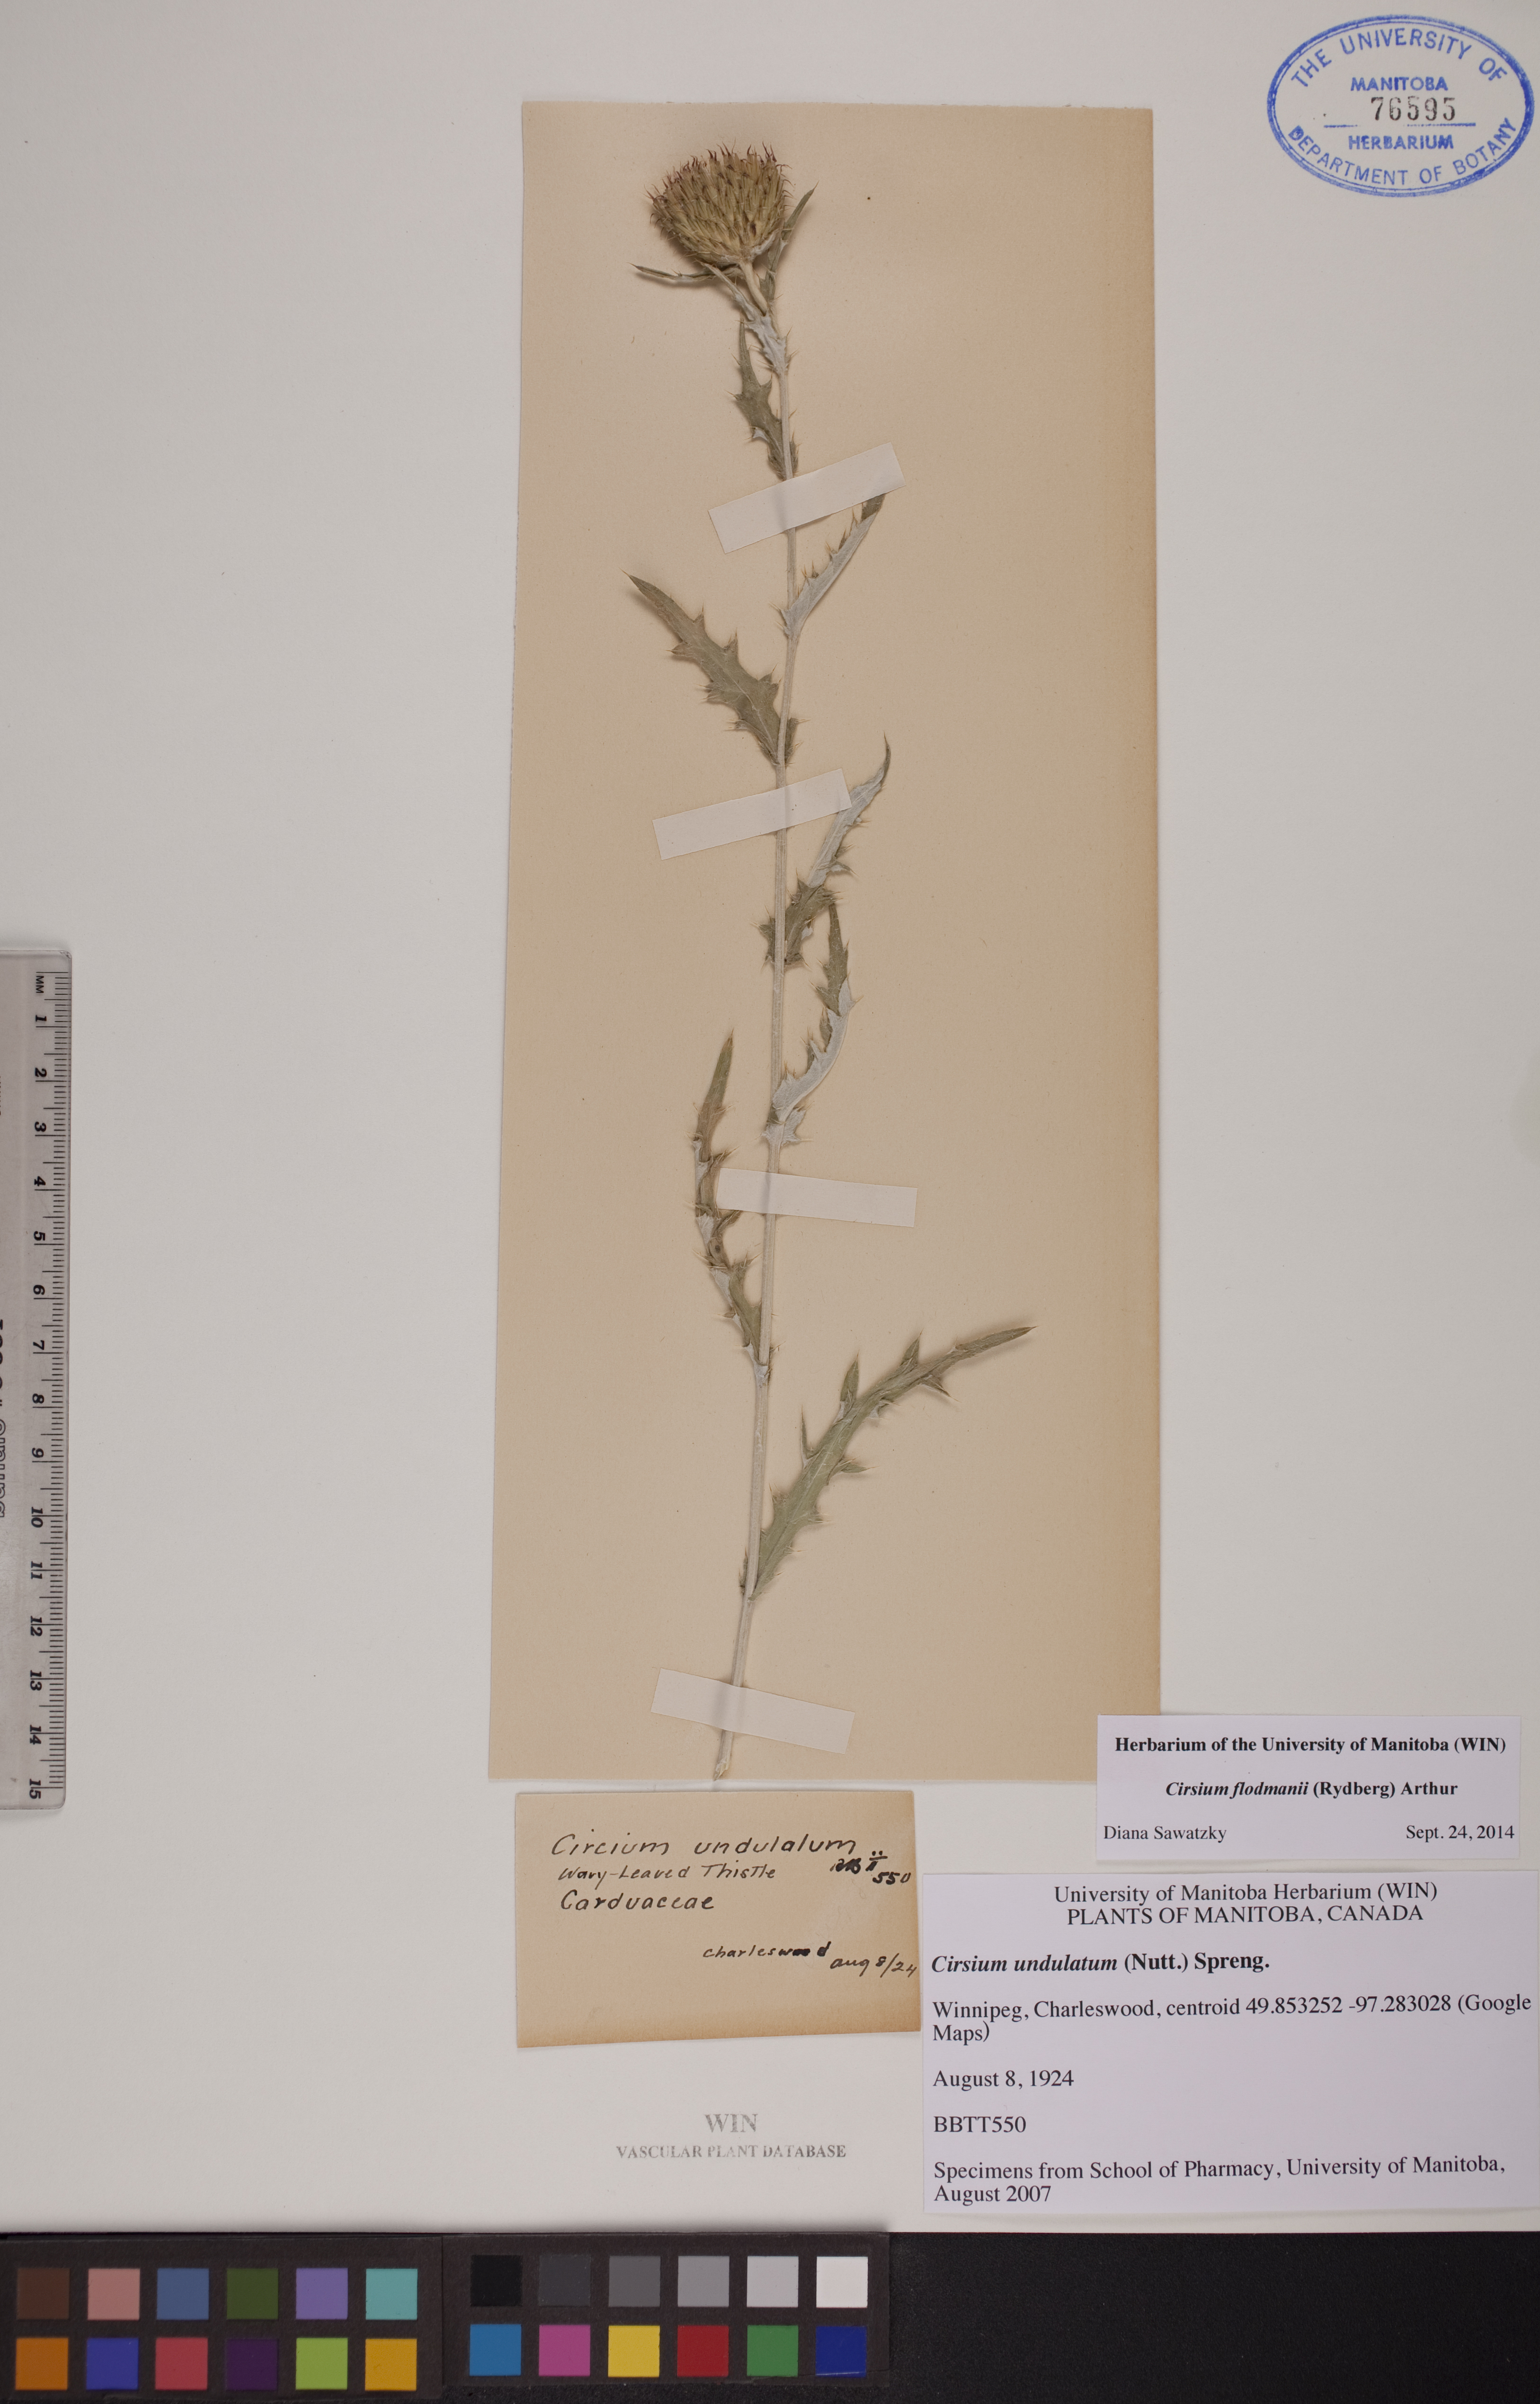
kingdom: Plantae
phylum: Tracheophyta
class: Magnoliopsida
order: Asterales
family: Asteraceae
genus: Cirsium
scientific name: Cirsium flodmanii
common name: Flodman's thistle
